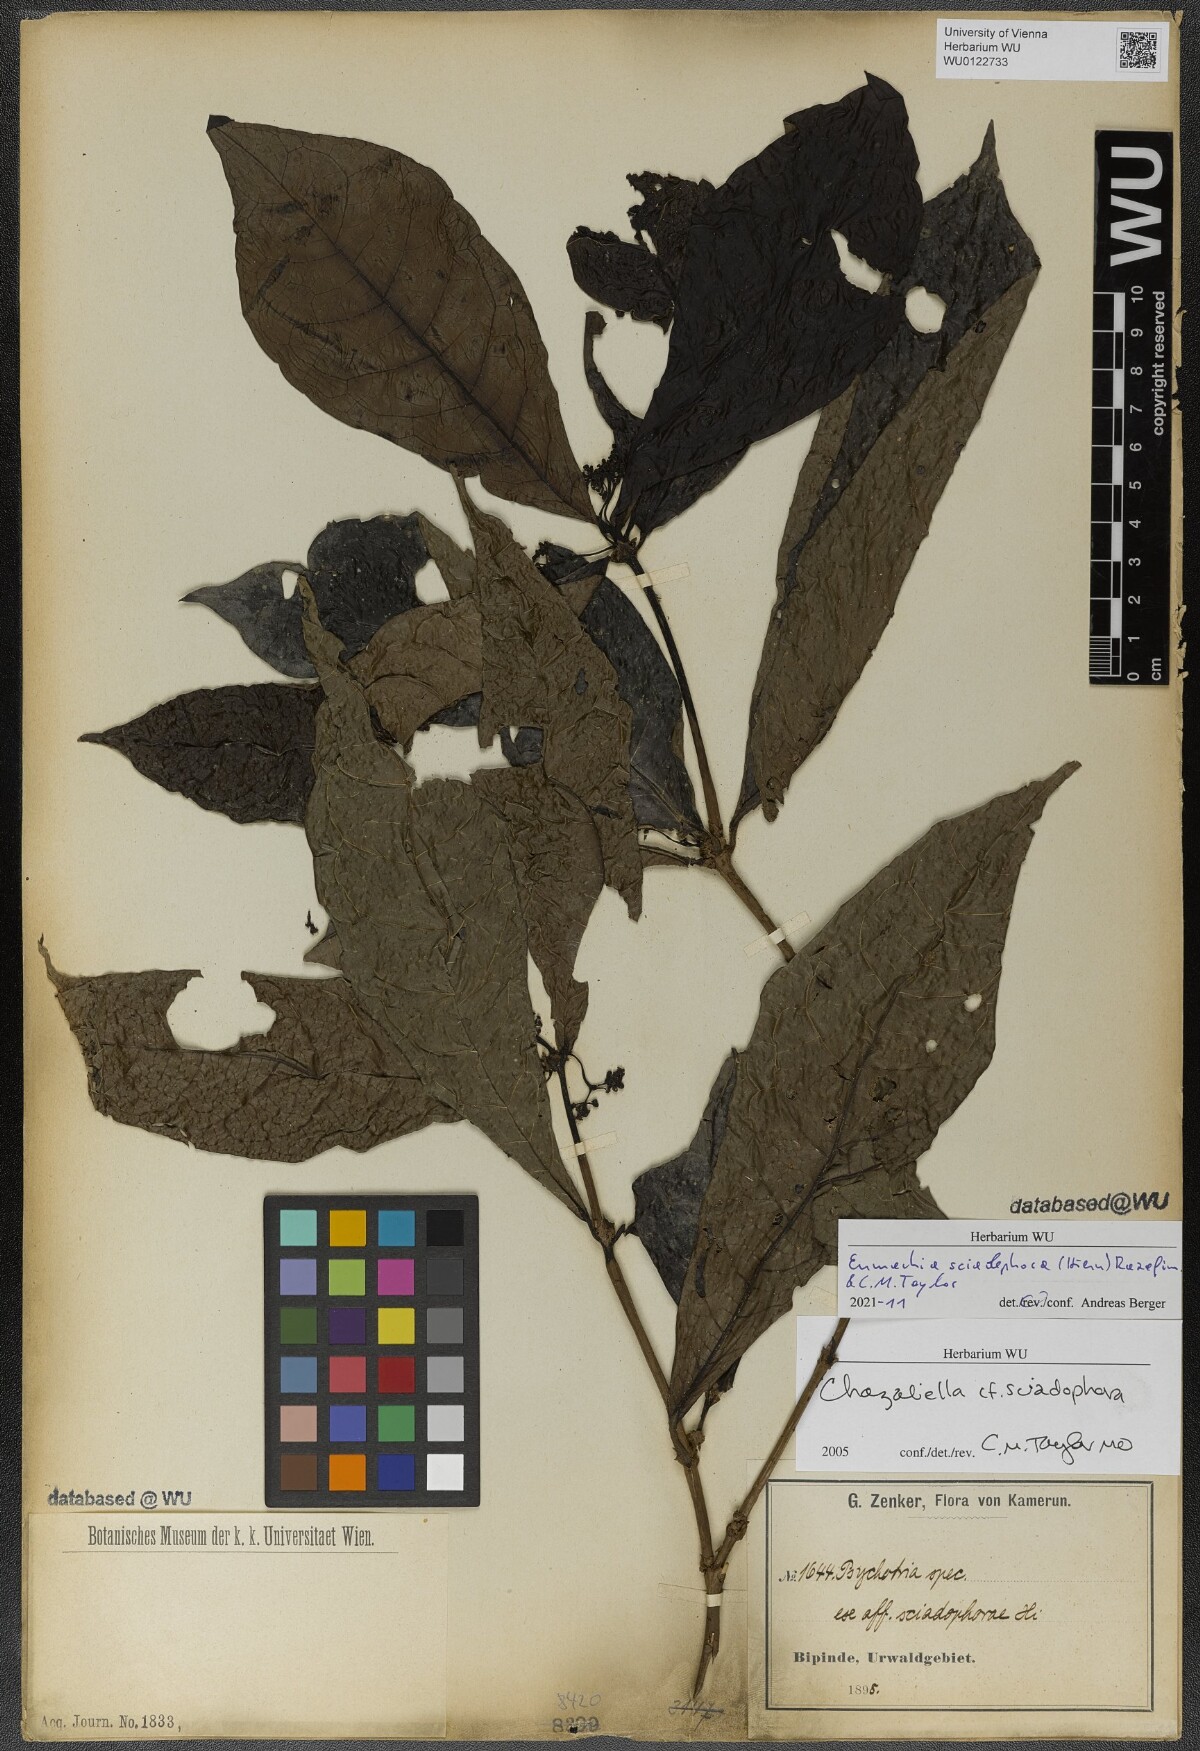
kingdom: Plantae
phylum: Tracheophyta
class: Magnoliopsida
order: Gentianales
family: Rubiaceae
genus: Eumachia
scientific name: Eumachia sciadephora
